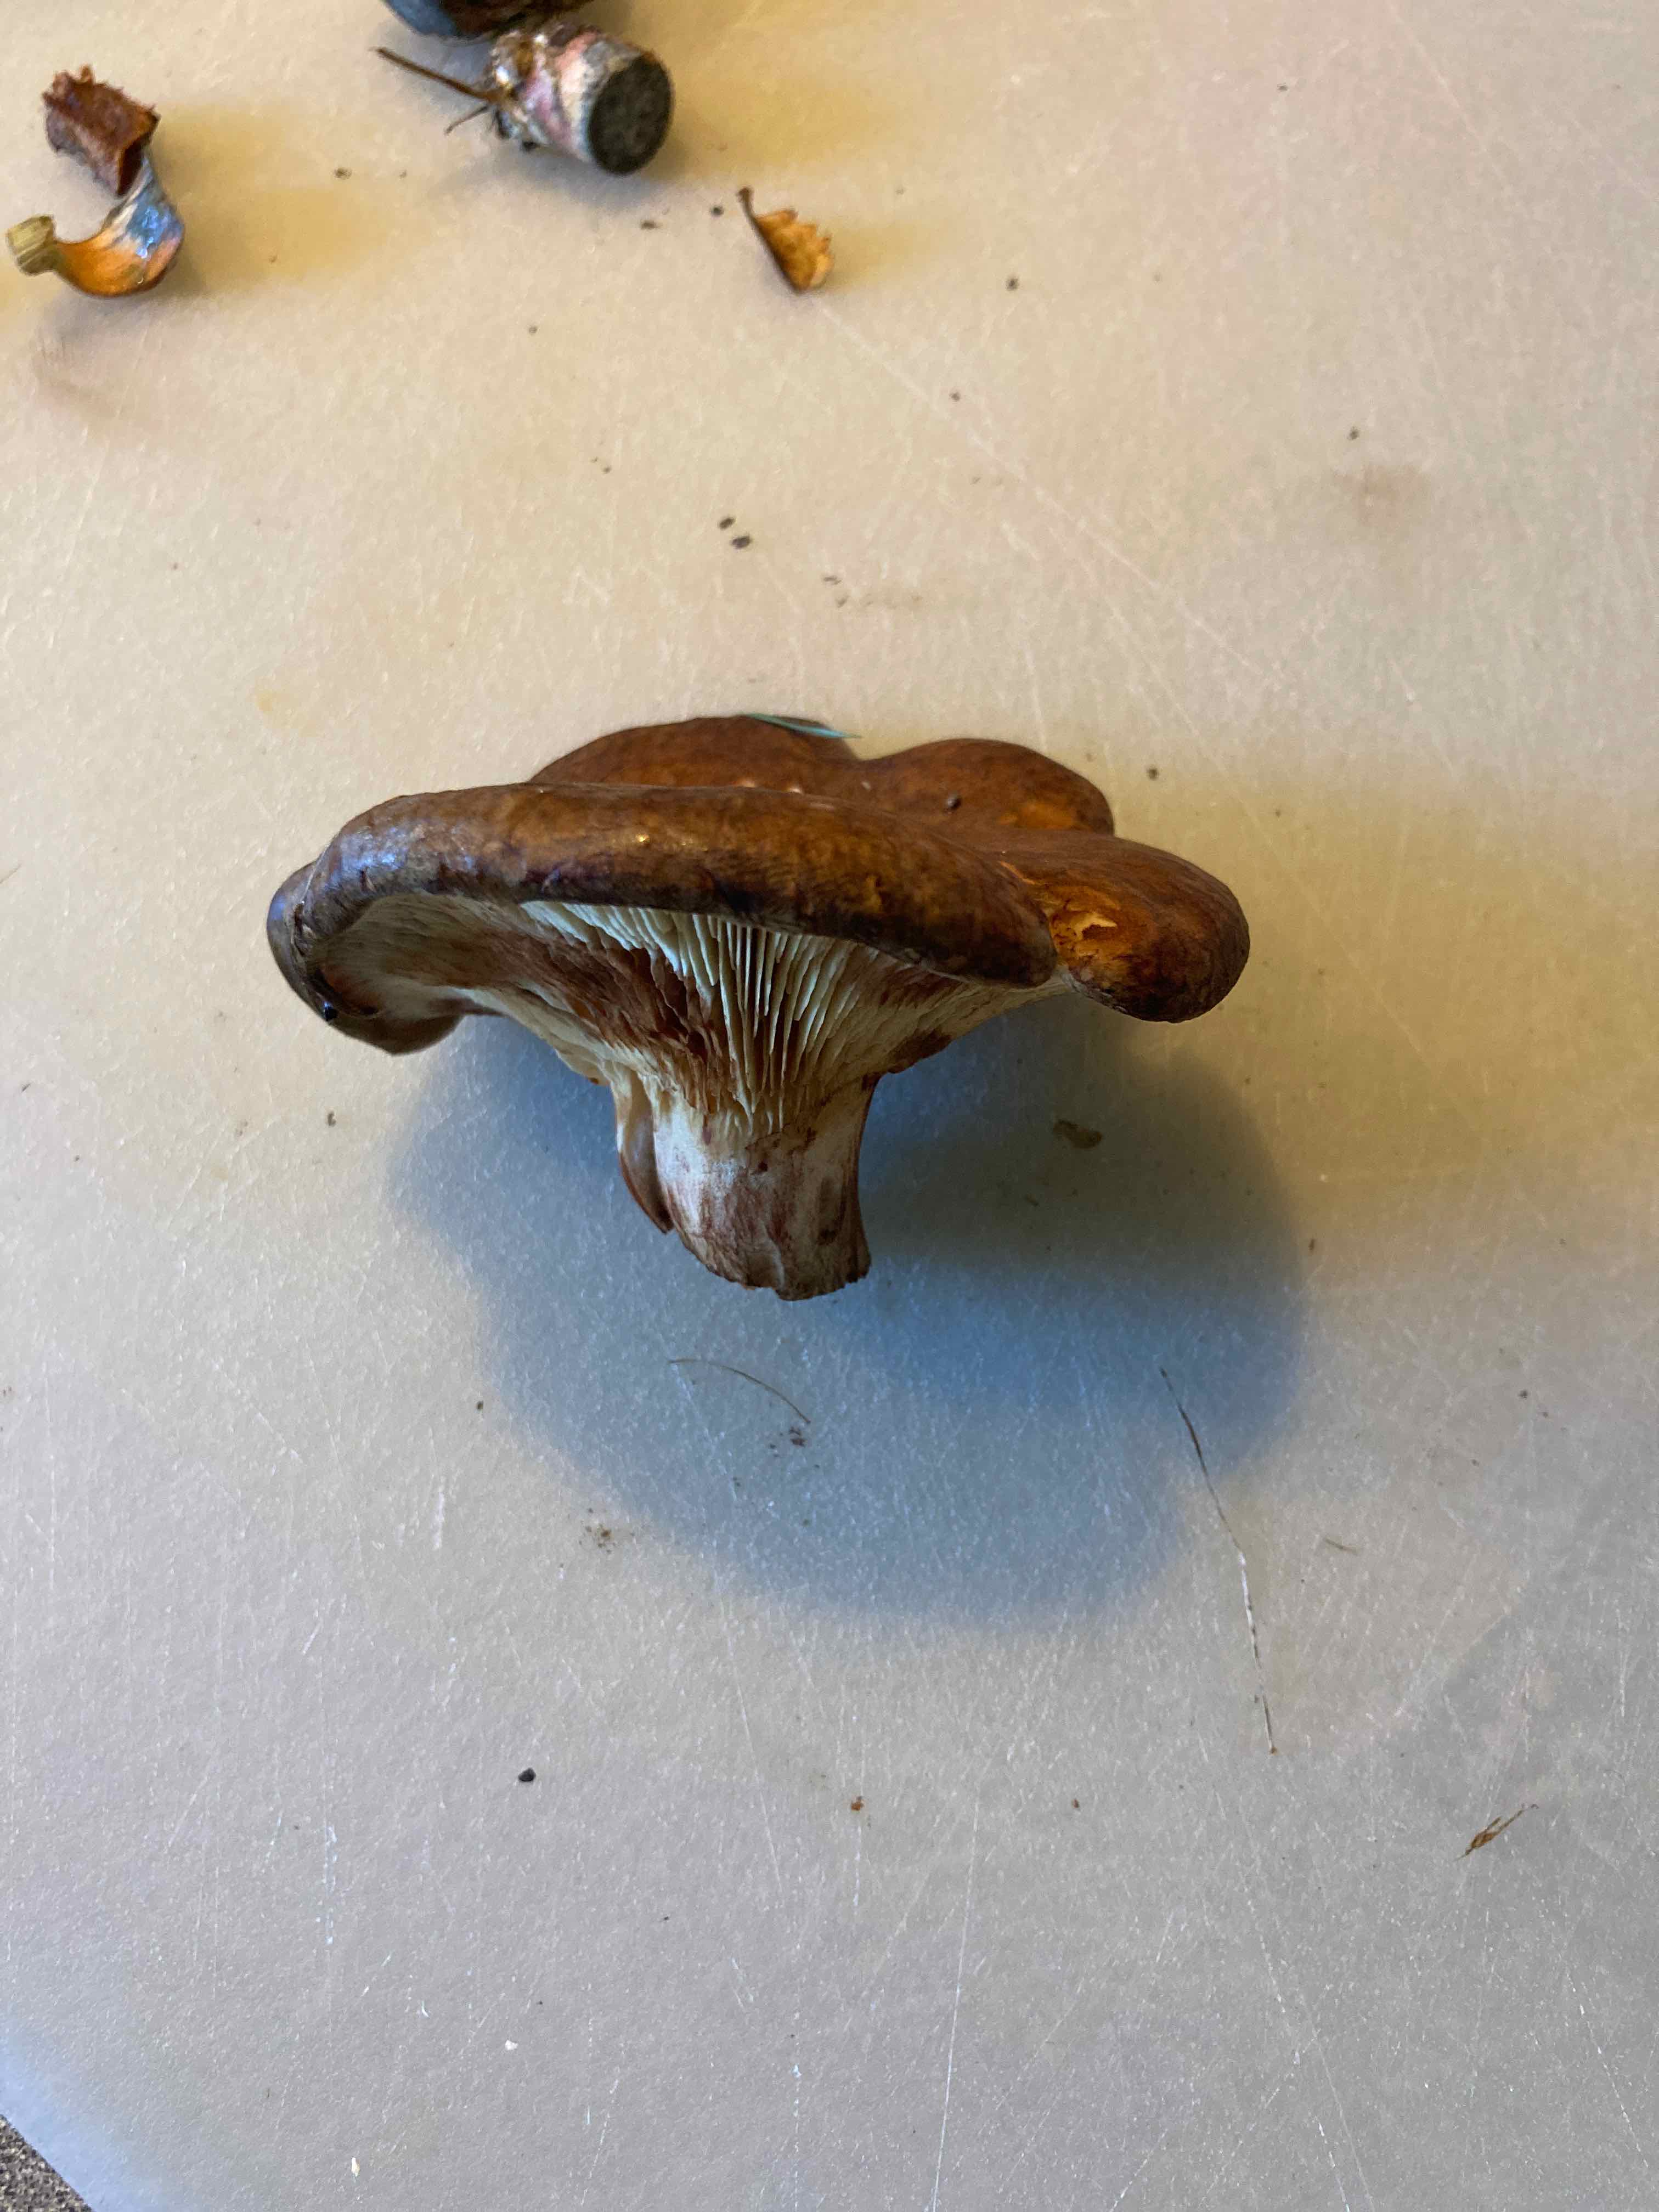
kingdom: Fungi
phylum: Basidiomycota
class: Agaricomycetes
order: Boletales
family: Paxillaceae
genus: Paxillus
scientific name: Paxillus
